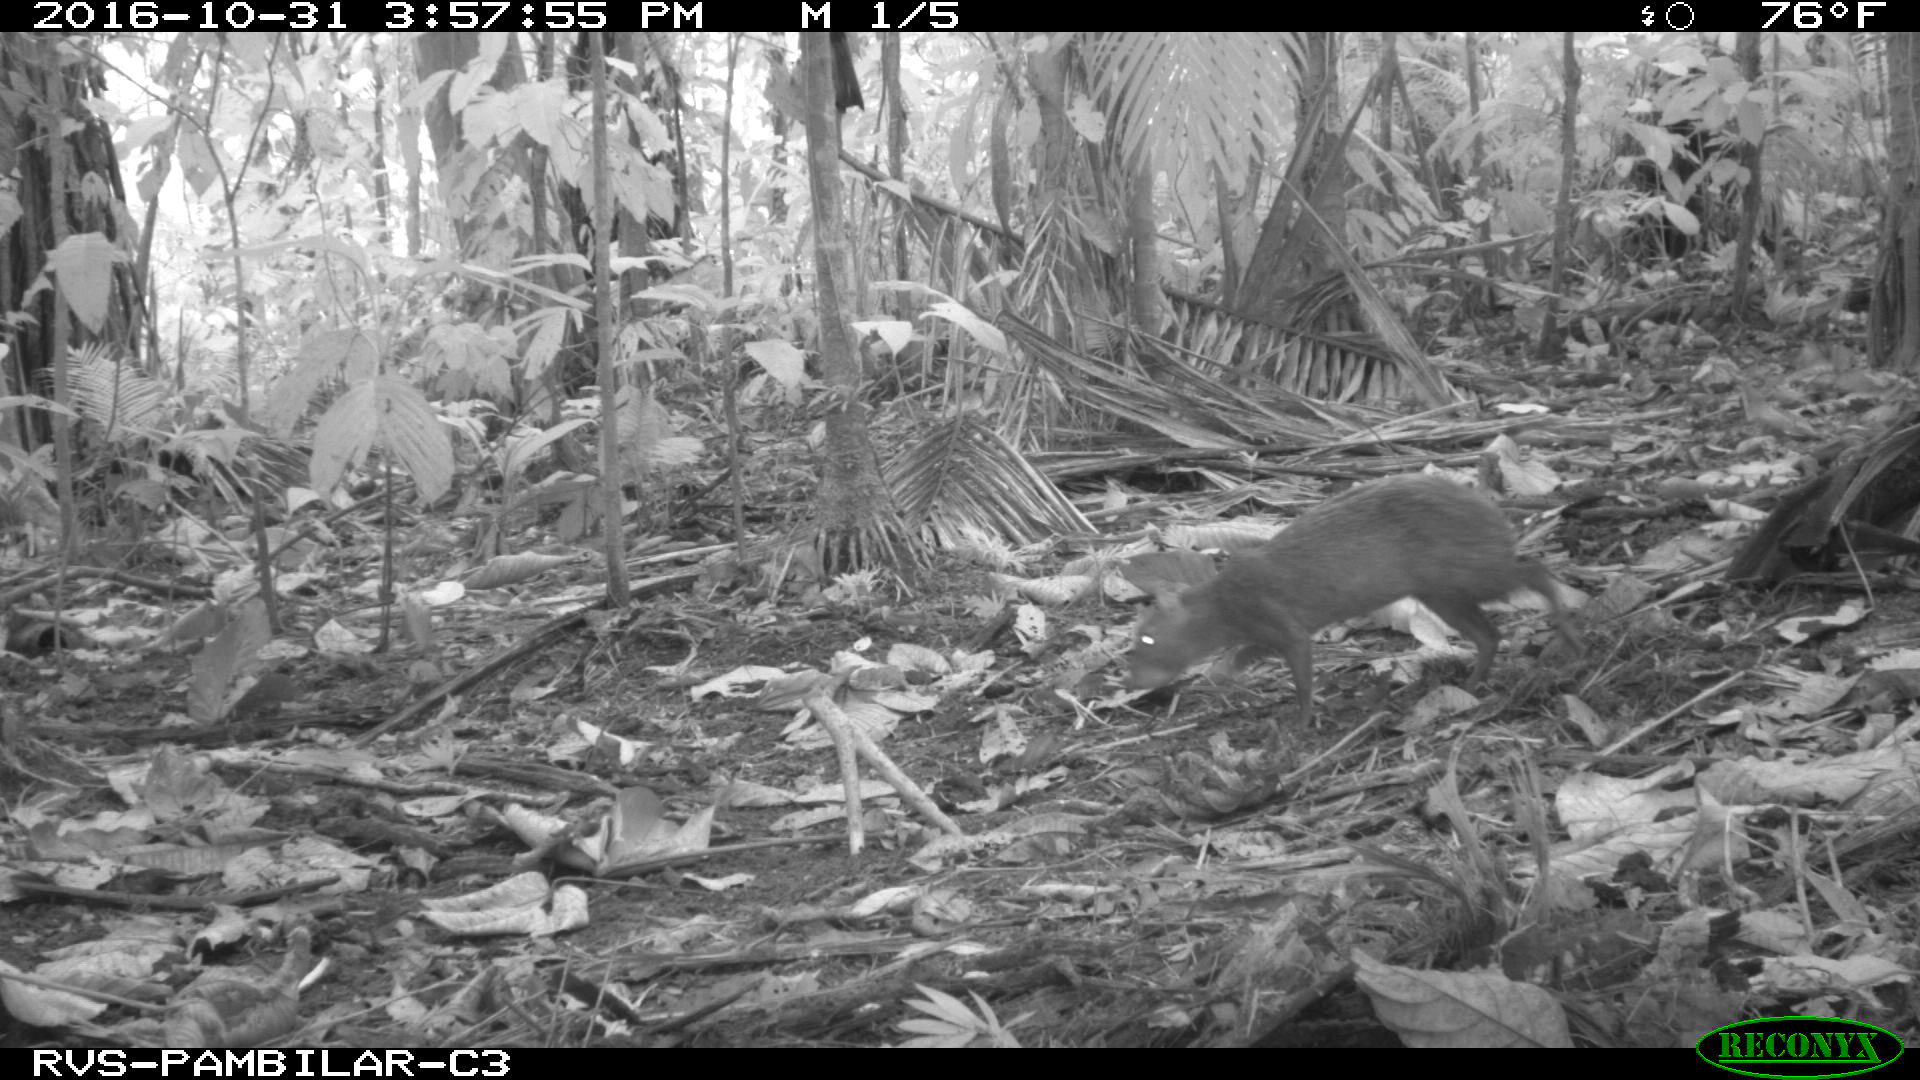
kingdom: Animalia
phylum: Chordata
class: Mammalia
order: Rodentia
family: Dasyproctidae
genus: Dasyprocta
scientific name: Dasyprocta punctata
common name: Central american agouti
